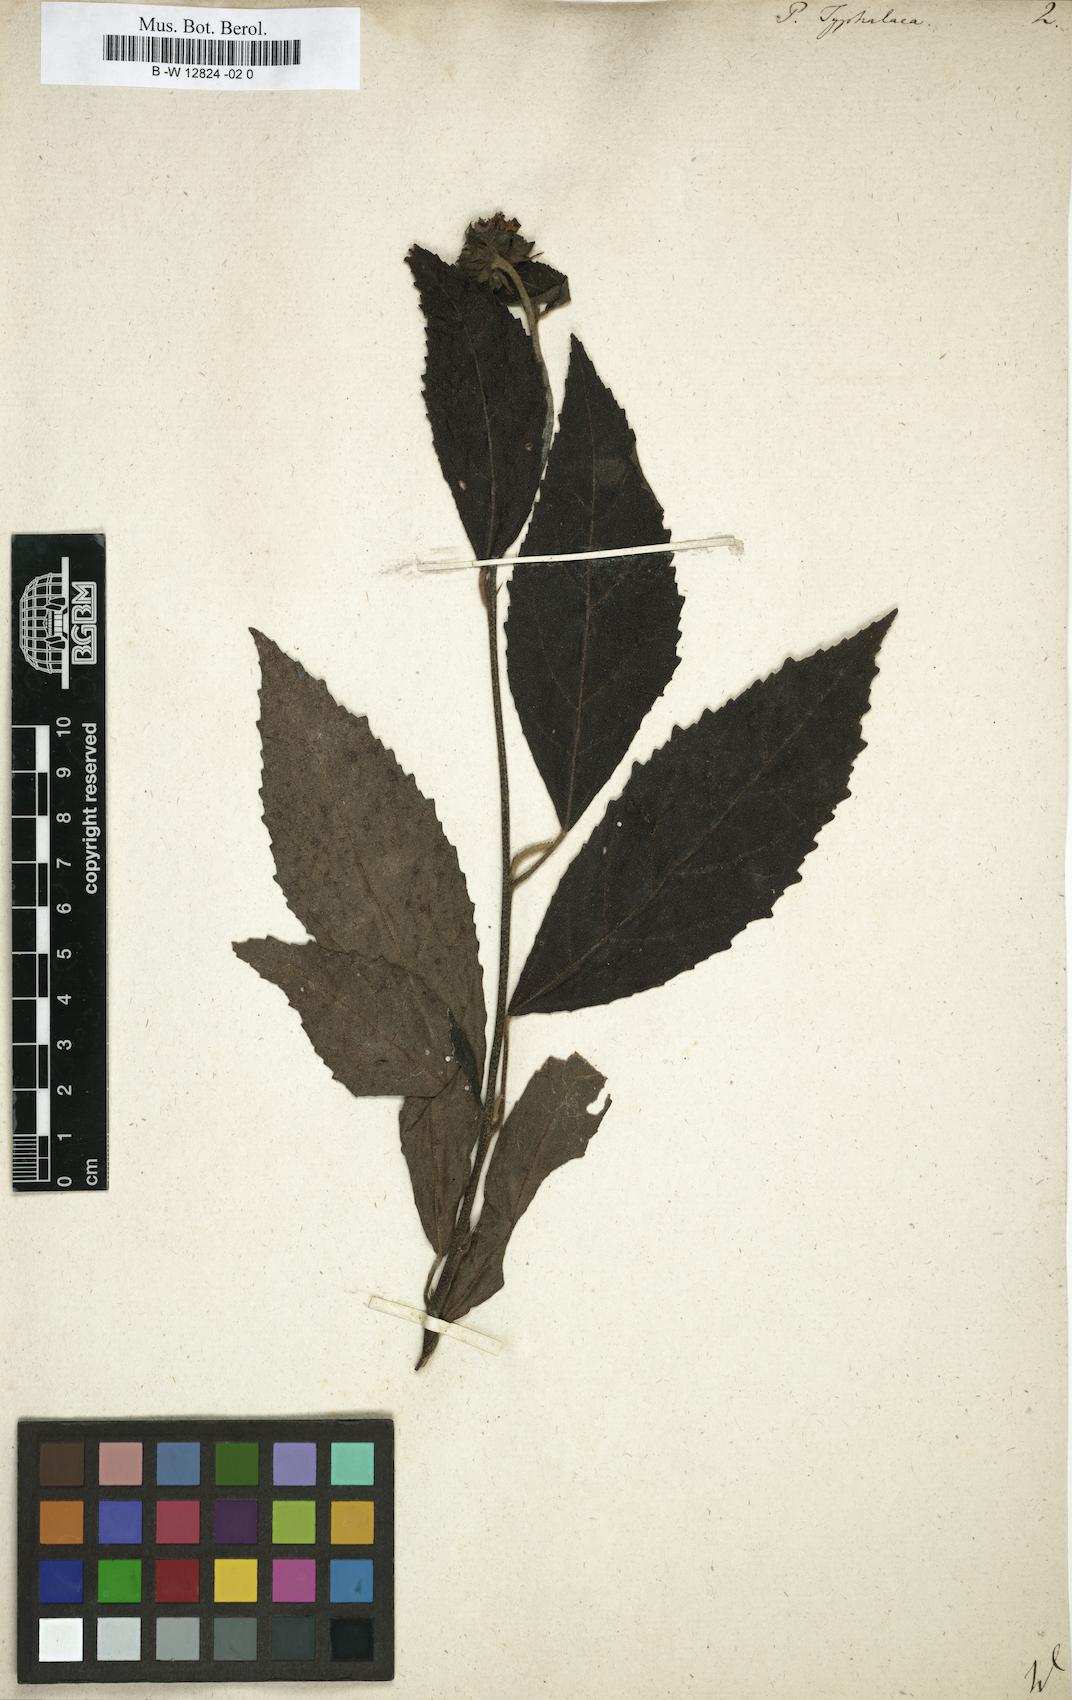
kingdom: Plantae
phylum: Tracheophyta
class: Magnoliopsida
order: Malvales
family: Malvaceae
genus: Pavonia
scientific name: Pavonia
